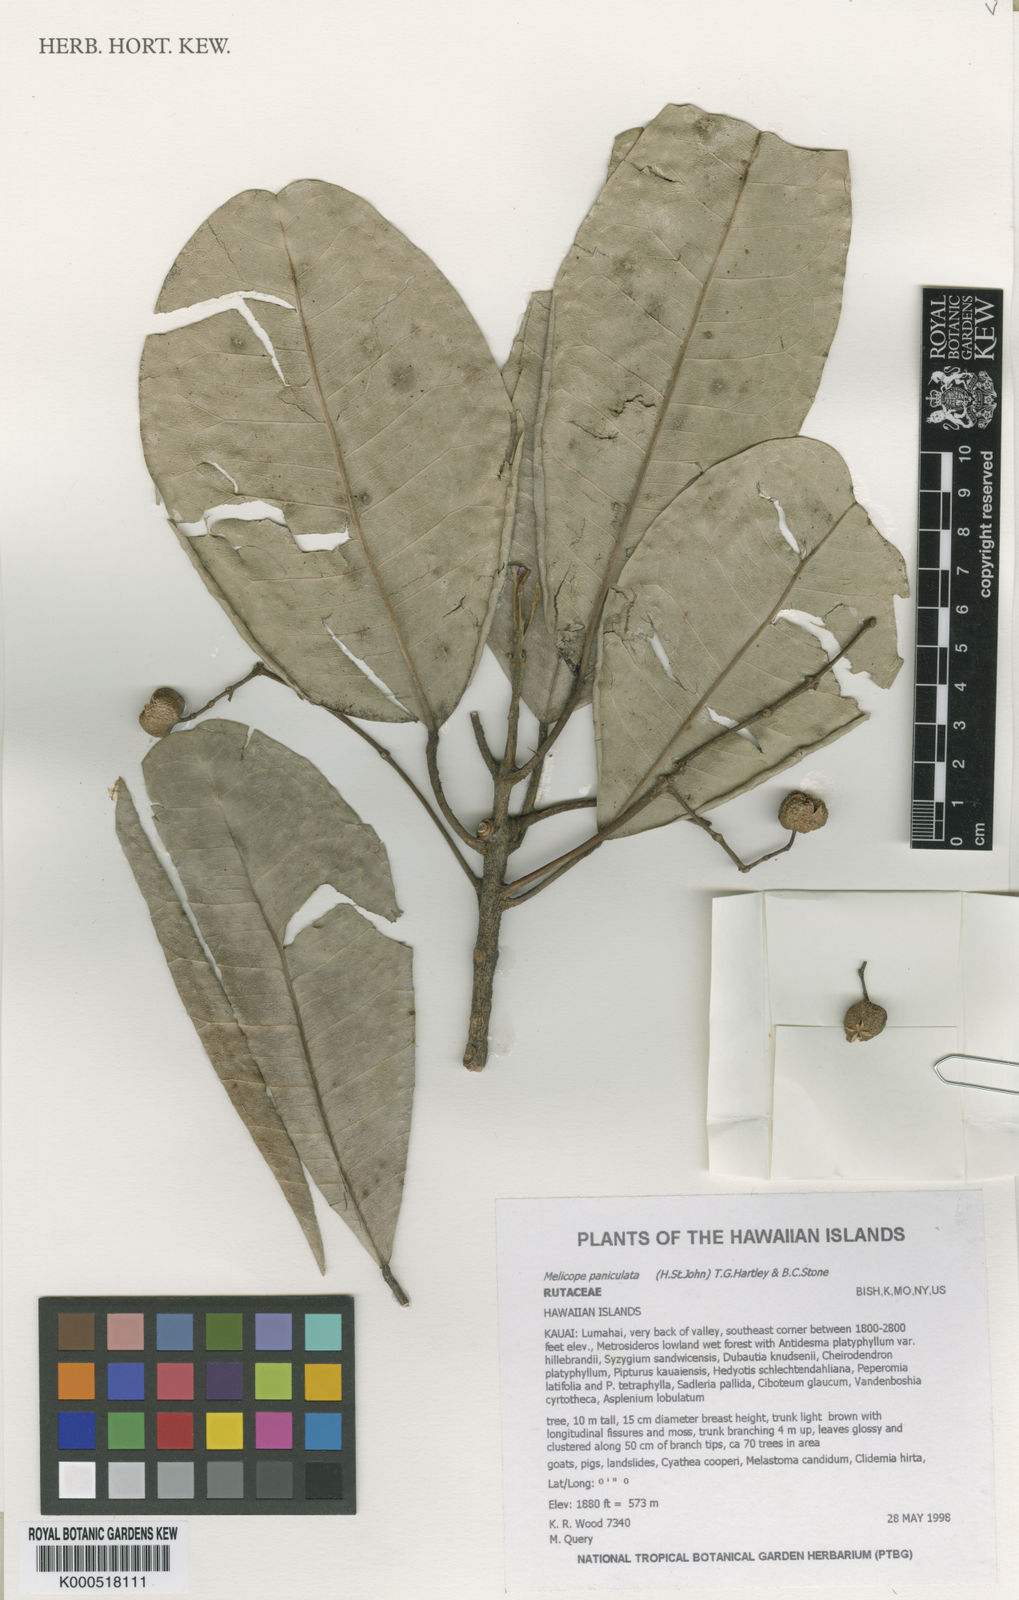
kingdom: Plantae
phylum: Tracheophyta
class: Magnoliopsida
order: Sapindales
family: Rutaceae
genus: Melicope
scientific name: Melicope paniculata
